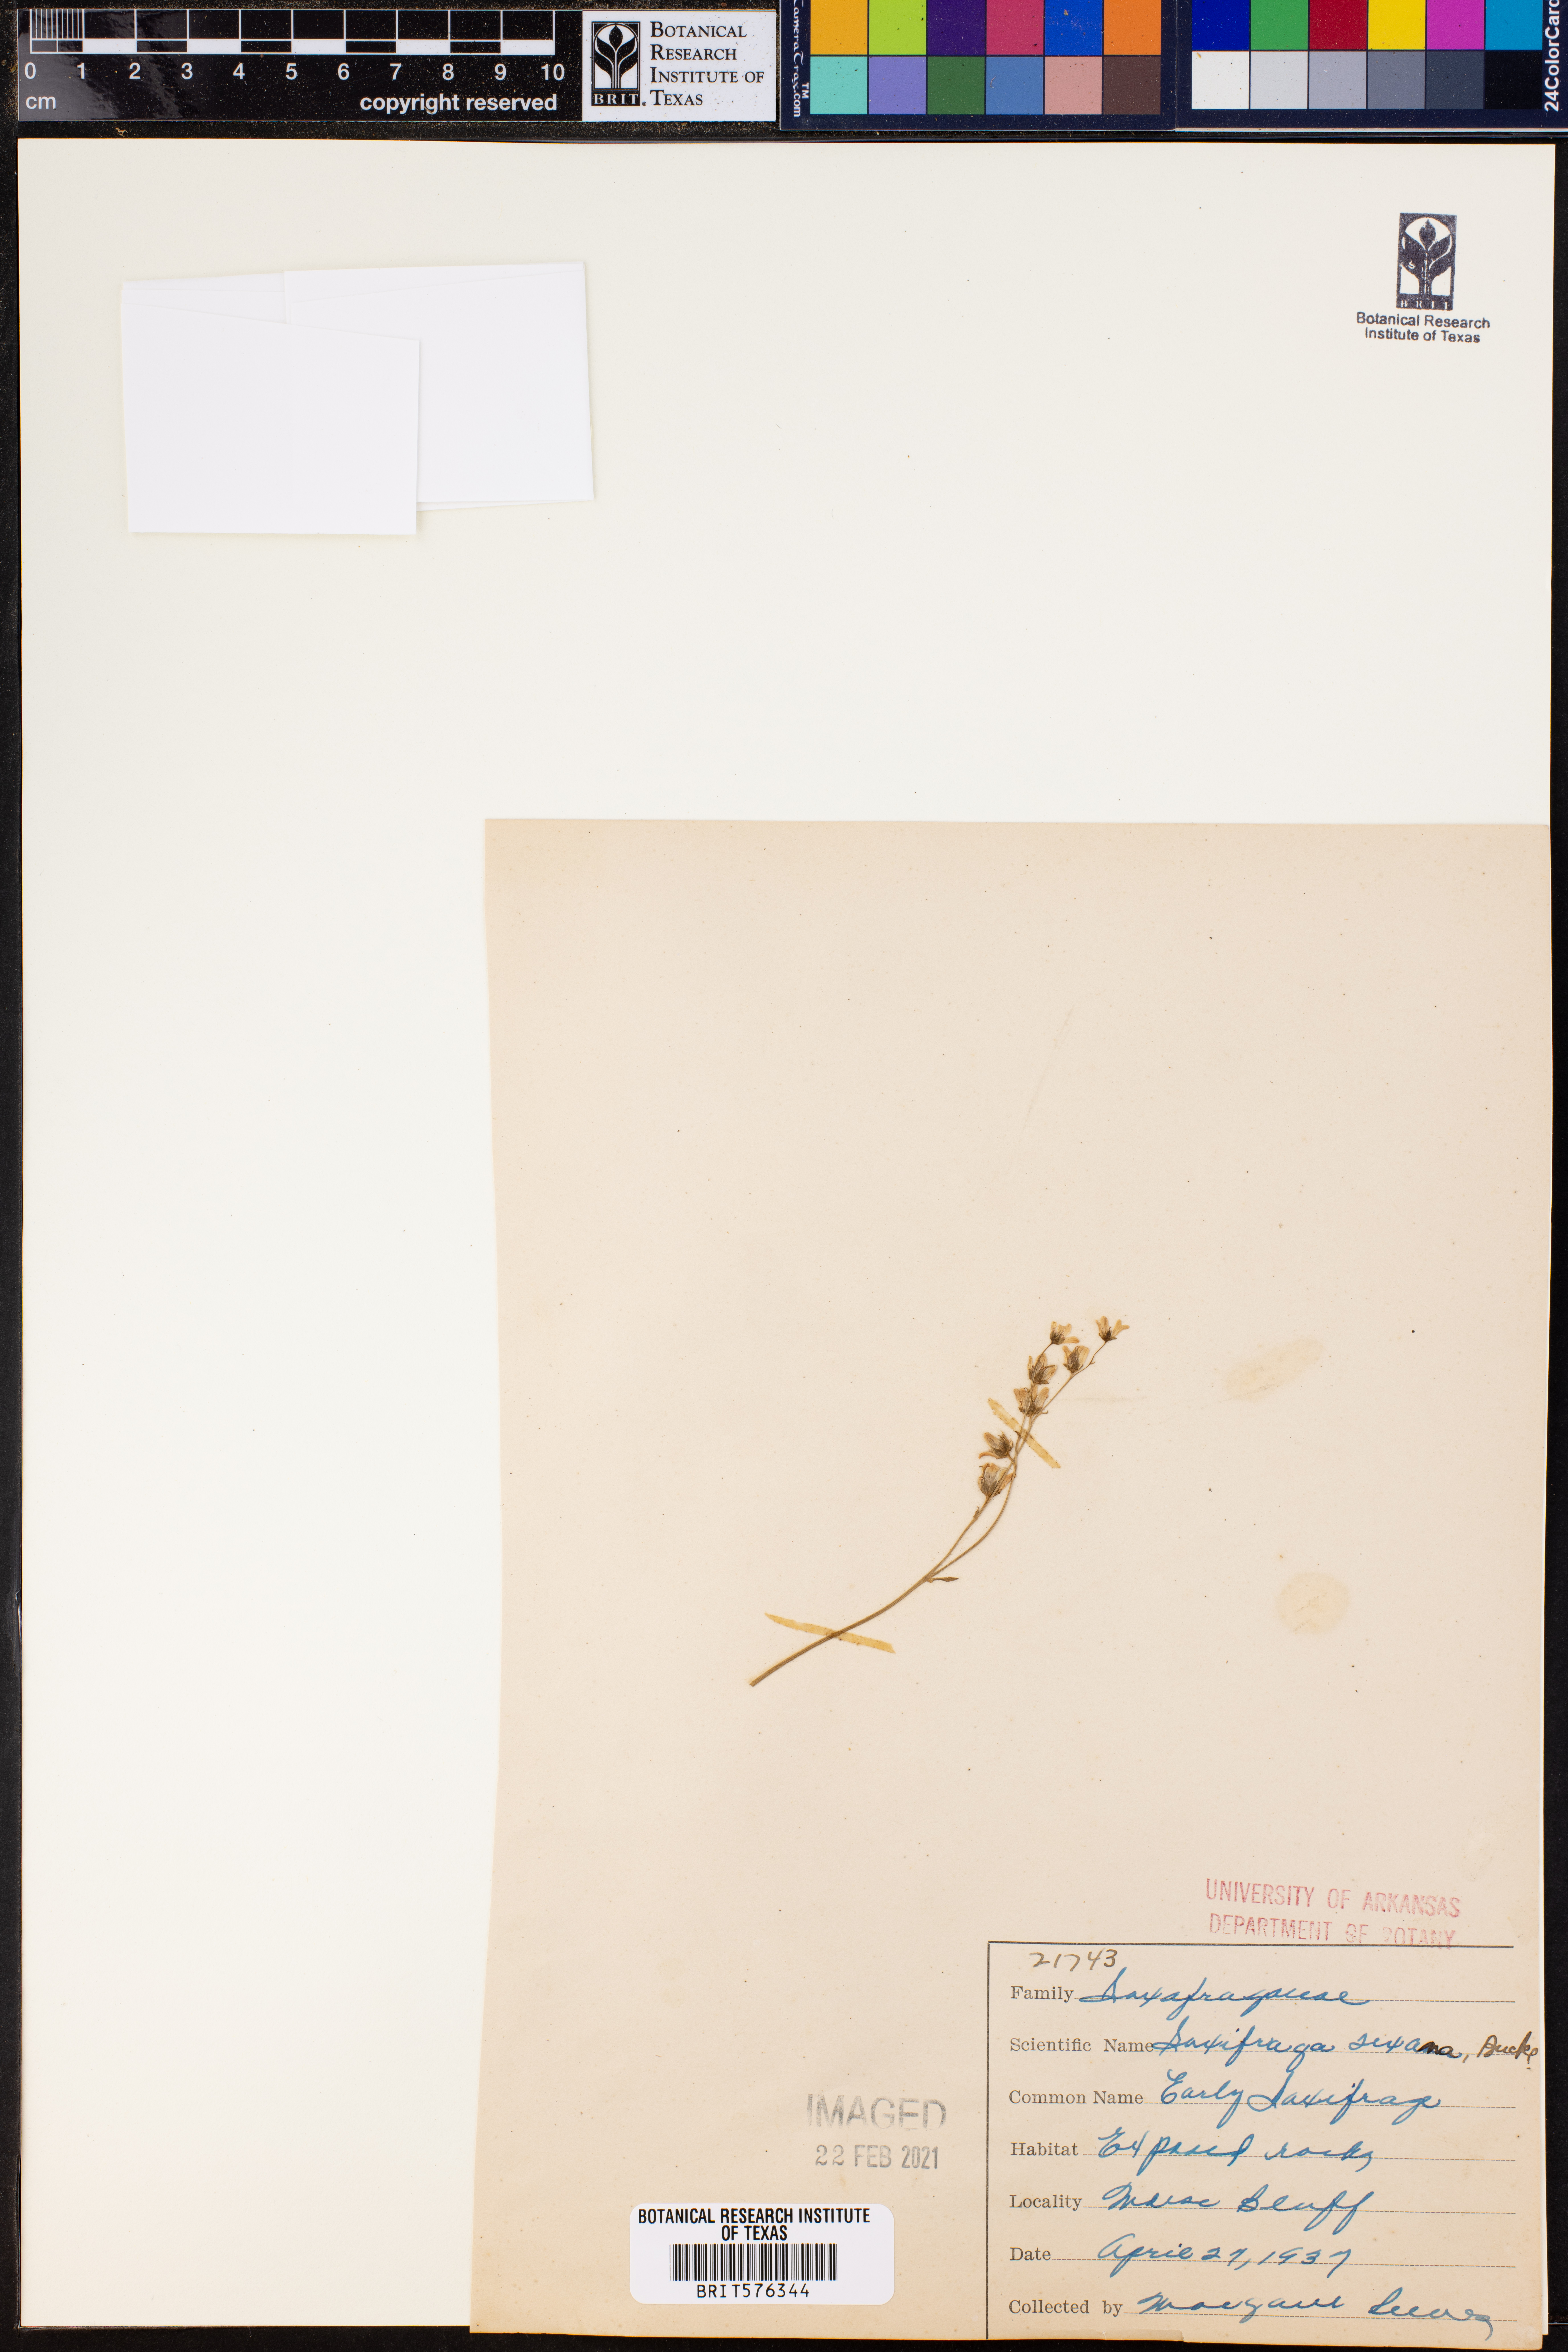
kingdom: Plantae
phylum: Tracheophyta
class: Magnoliopsida
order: Saxifragales
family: Saxifragaceae
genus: Micranthes
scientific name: Micranthes texana
